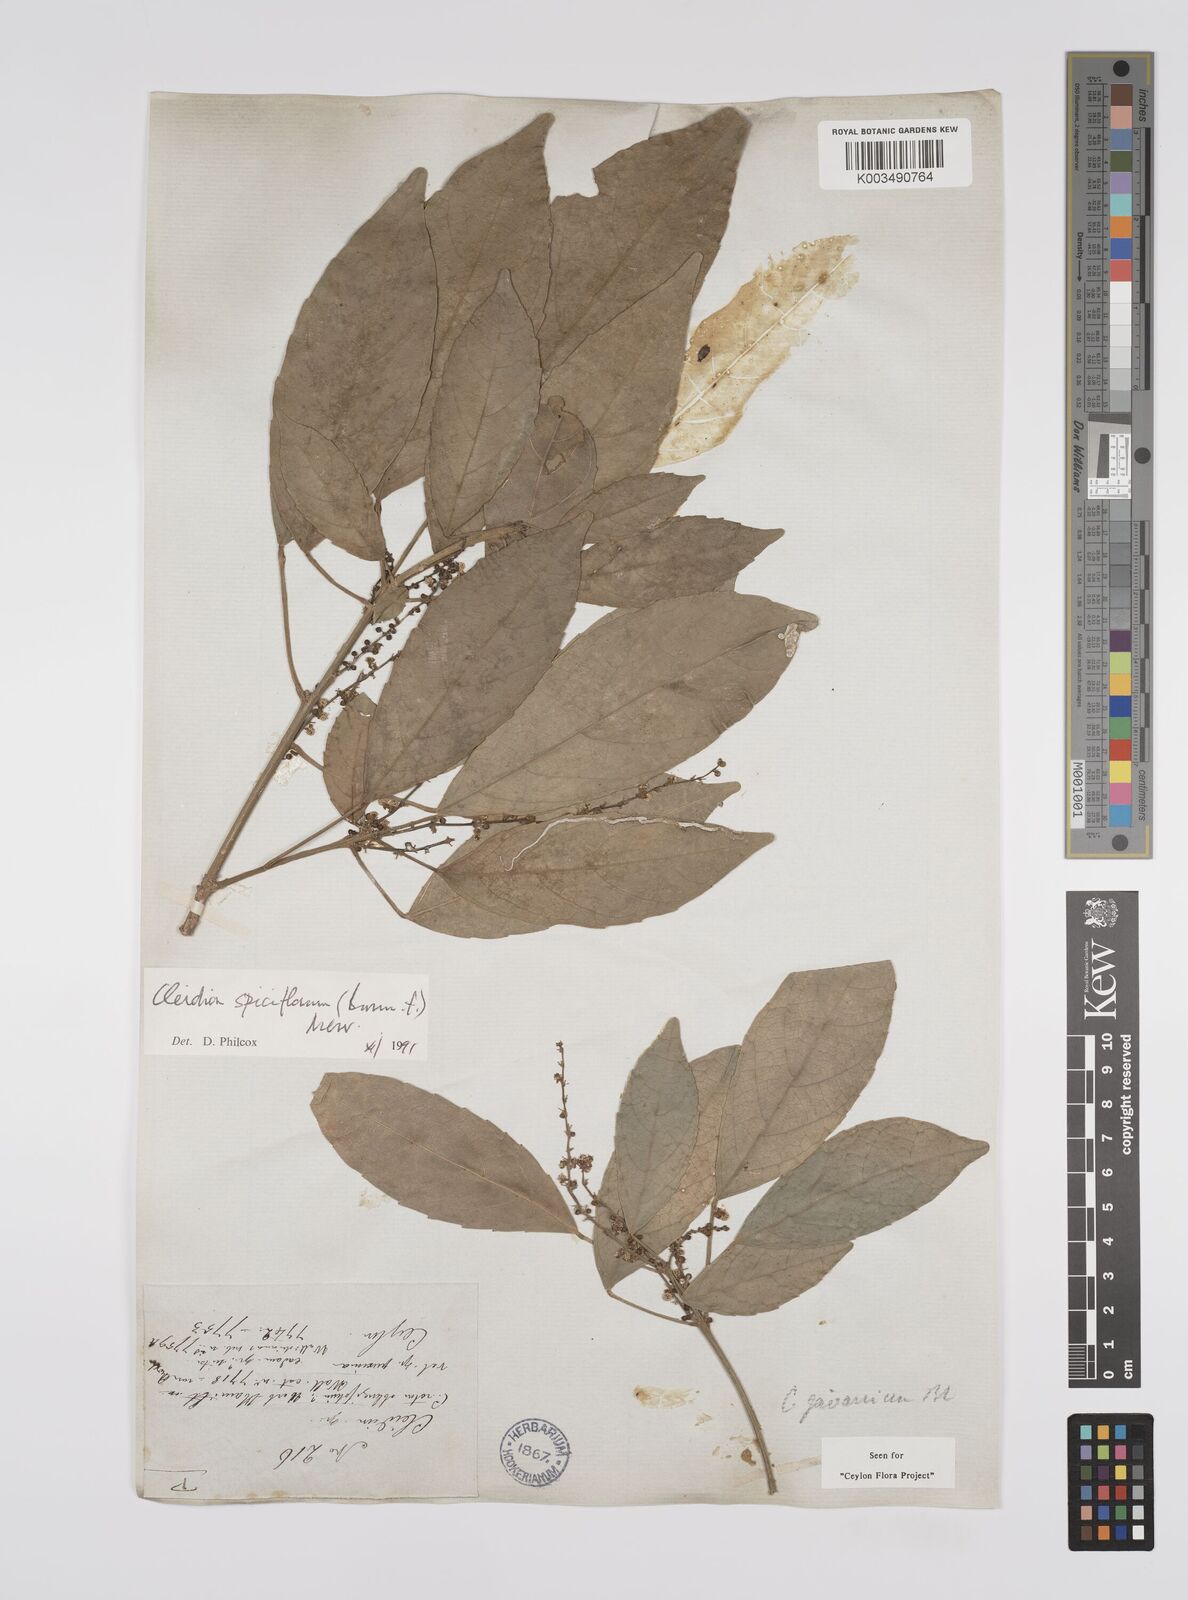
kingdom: Plantae
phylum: Tracheophyta
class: Magnoliopsida
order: Malpighiales
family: Euphorbiaceae
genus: Acalypha
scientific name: Acalypha spiciflora
